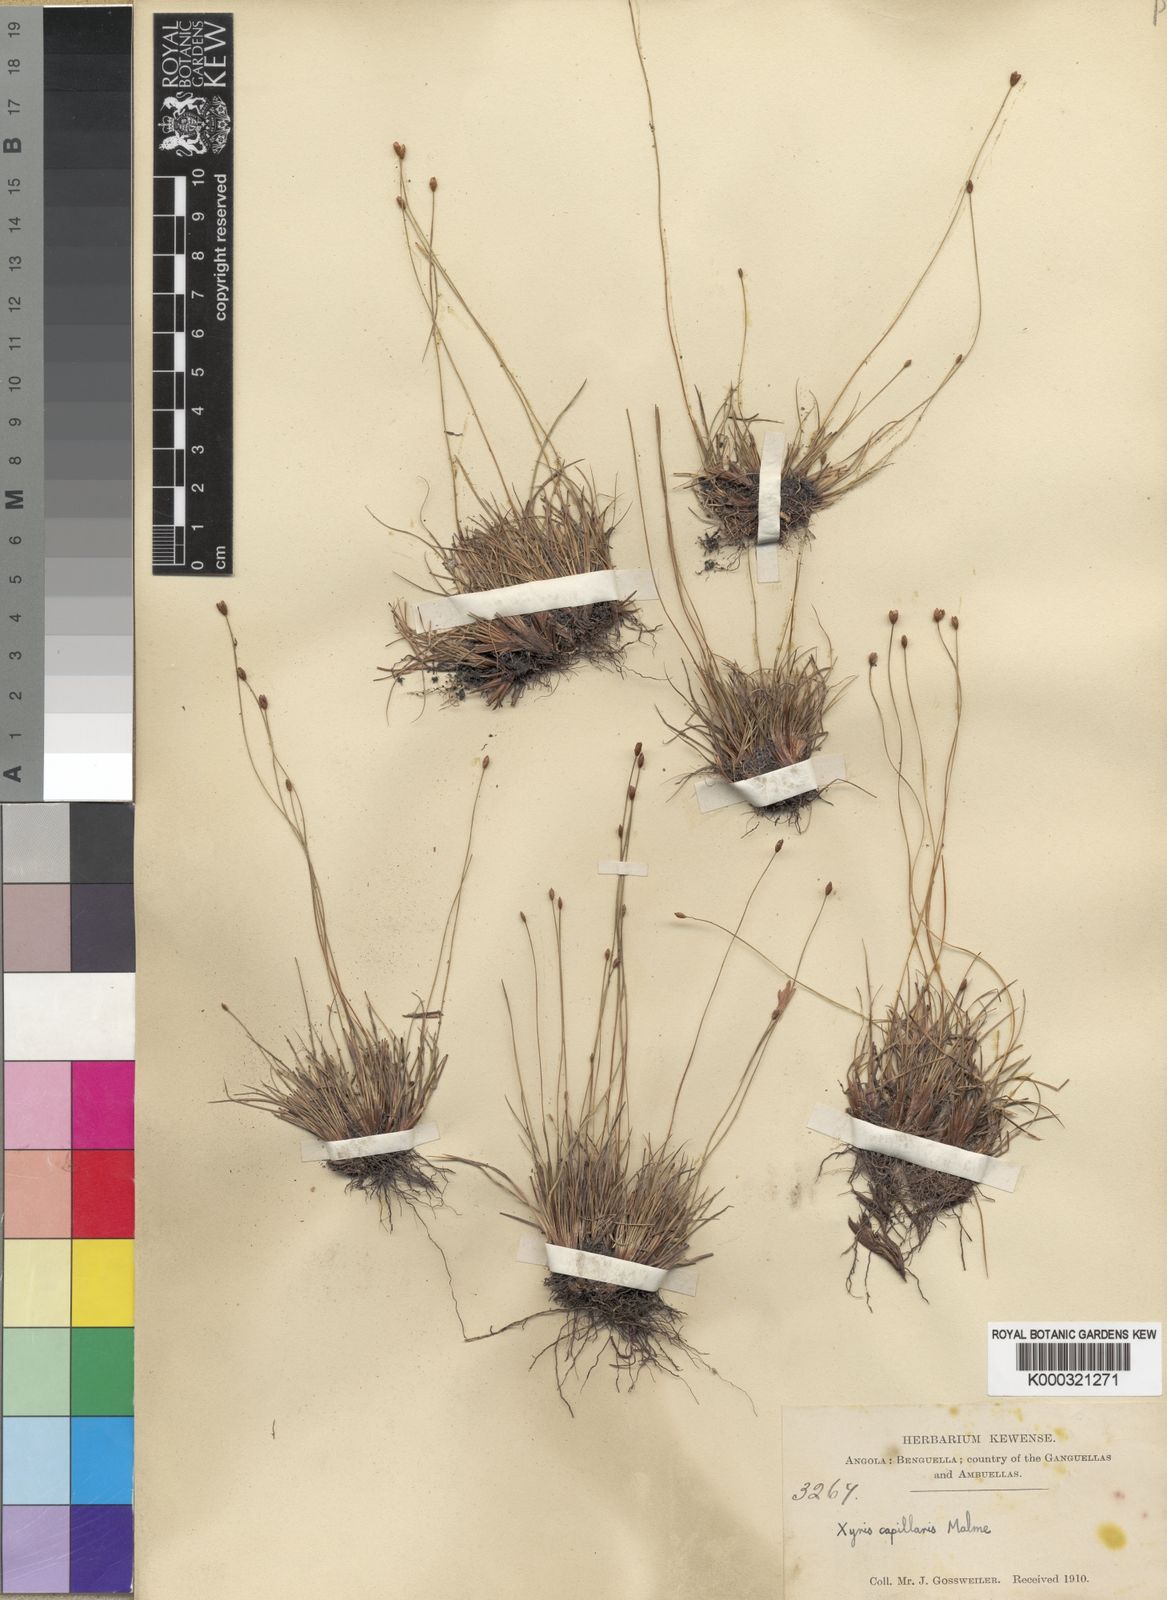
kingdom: Plantae
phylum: Tracheophyta
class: Liliopsida
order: Poales
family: Xyridaceae
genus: Xyris
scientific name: Xyris capillaris
